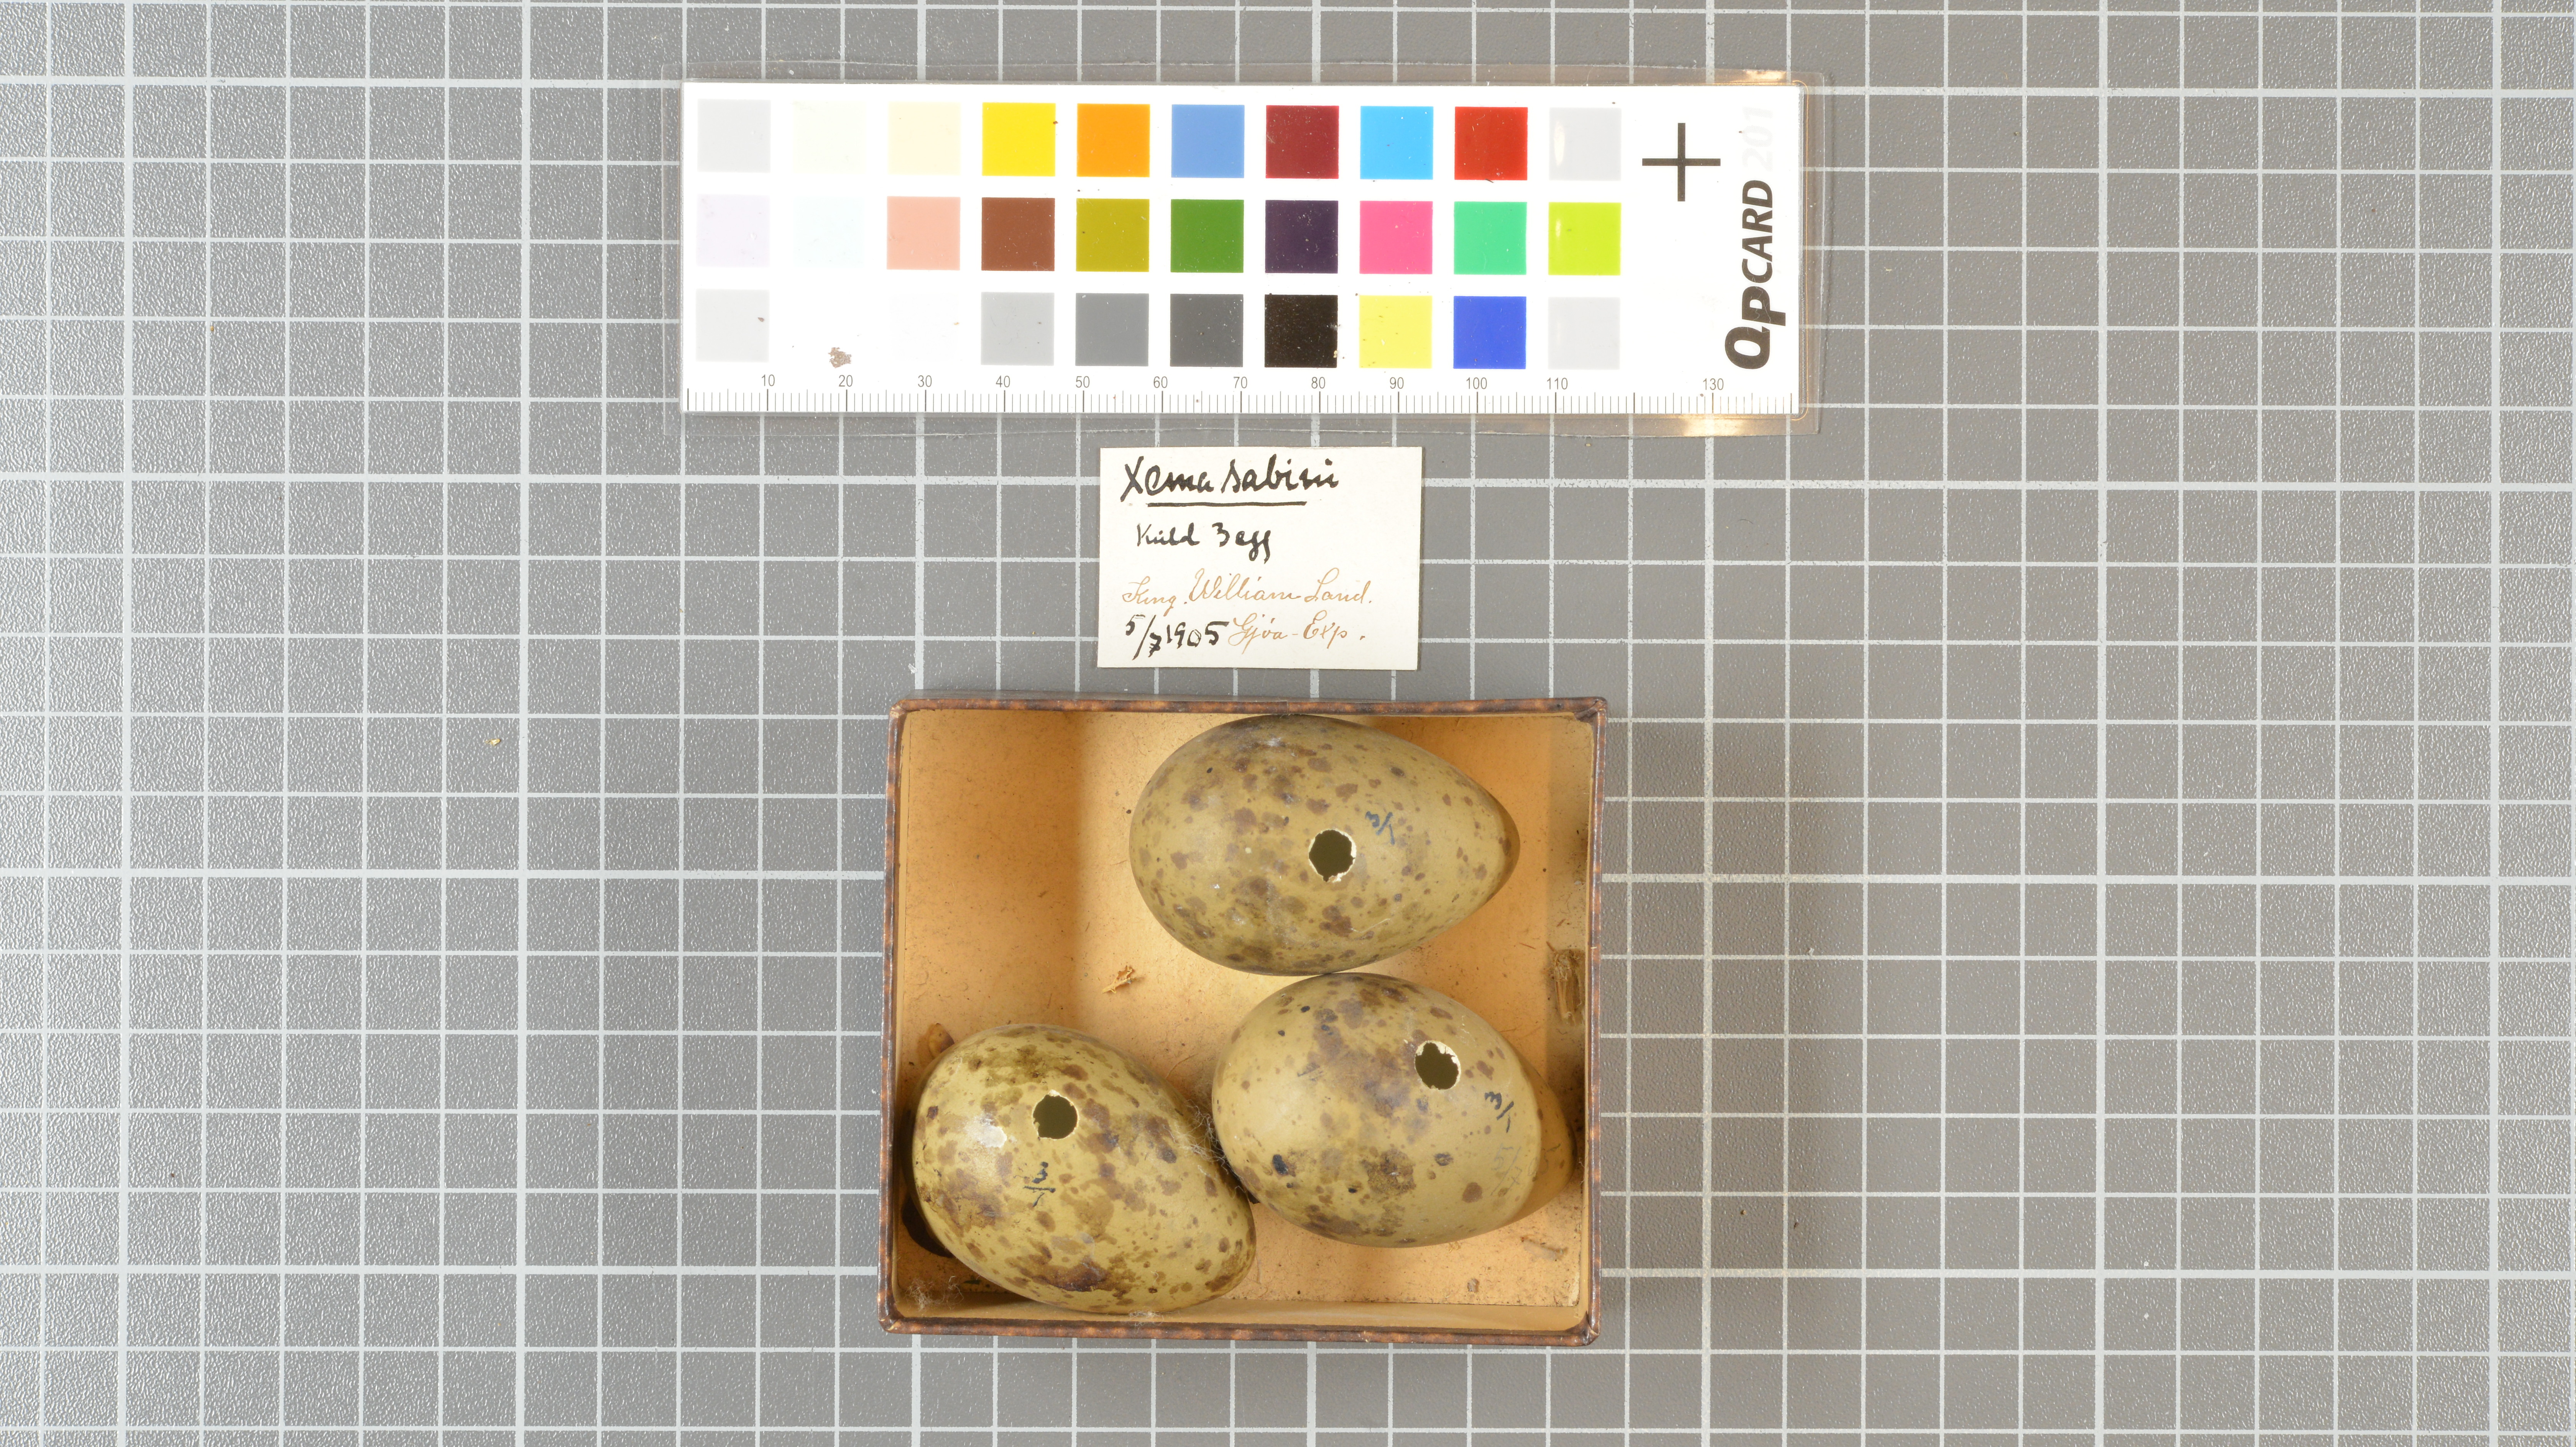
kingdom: Animalia
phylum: Chordata
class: Aves
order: Charadriiformes
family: Laridae
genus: Xema
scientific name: Xema sabini
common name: Sabine's gull
